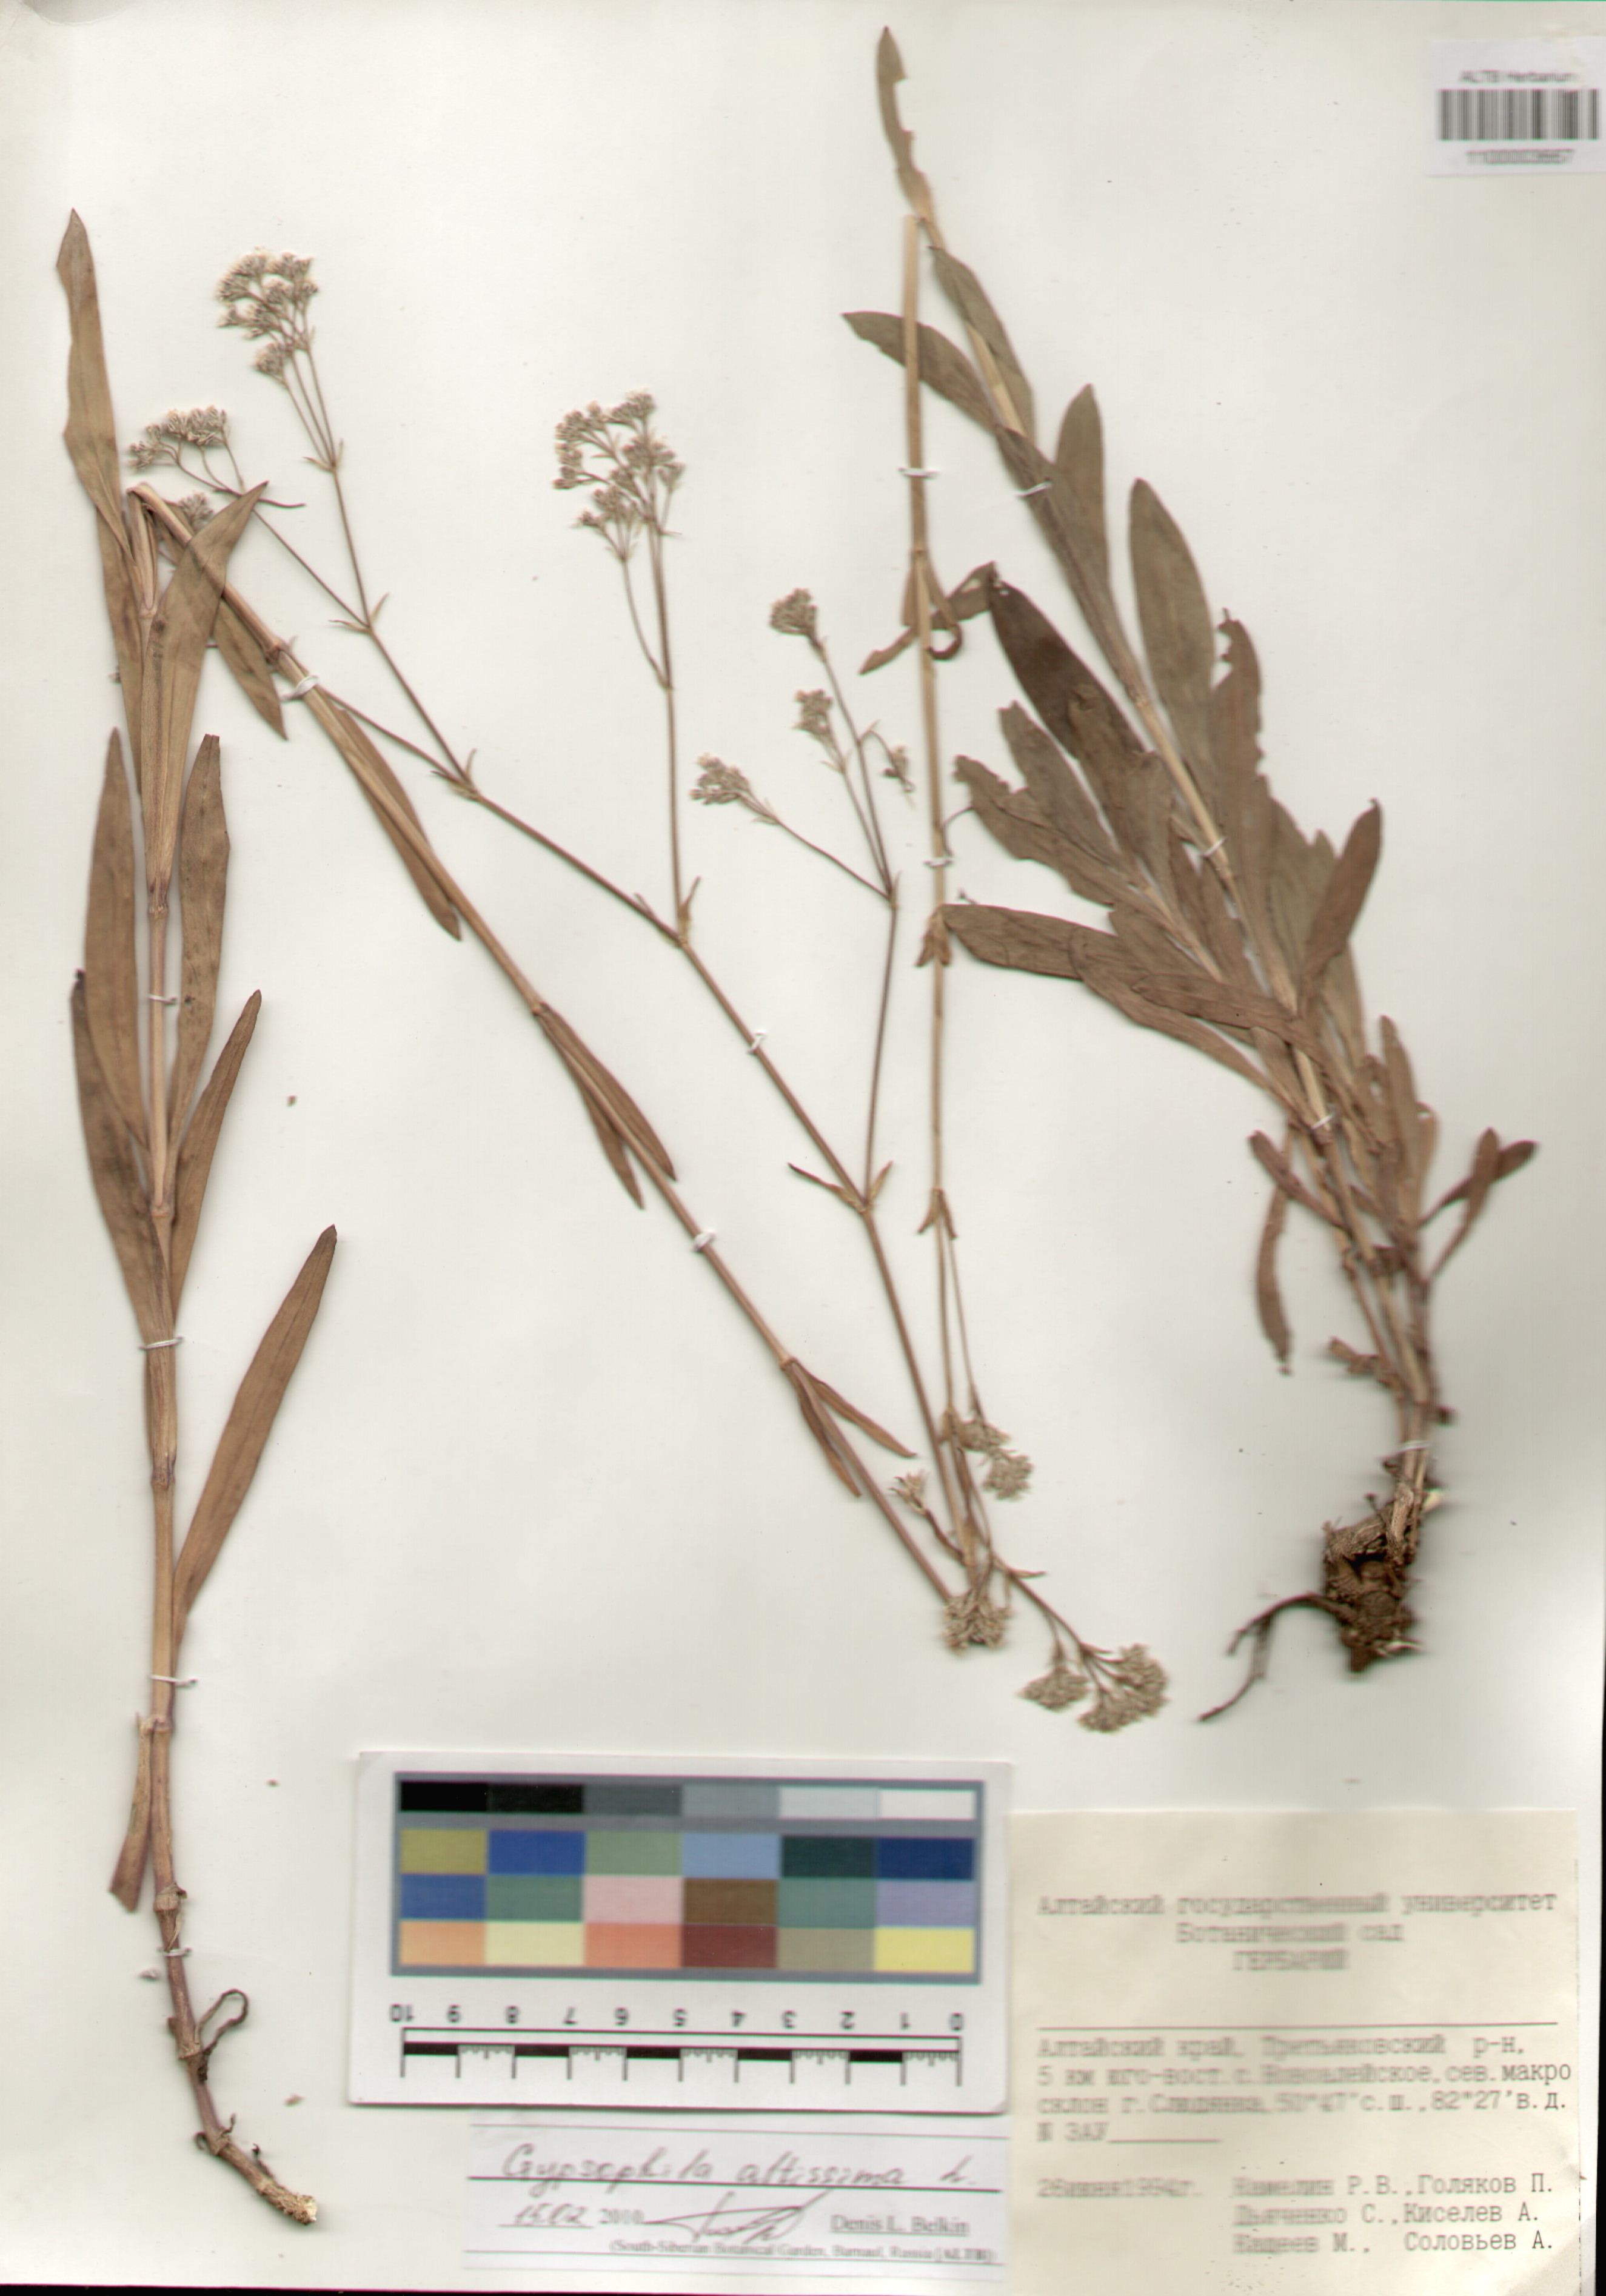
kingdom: Plantae
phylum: Tracheophyta
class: Magnoliopsida
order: Caryophyllales
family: Caryophyllaceae
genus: Gypsophila
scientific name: Gypsophila altissima
